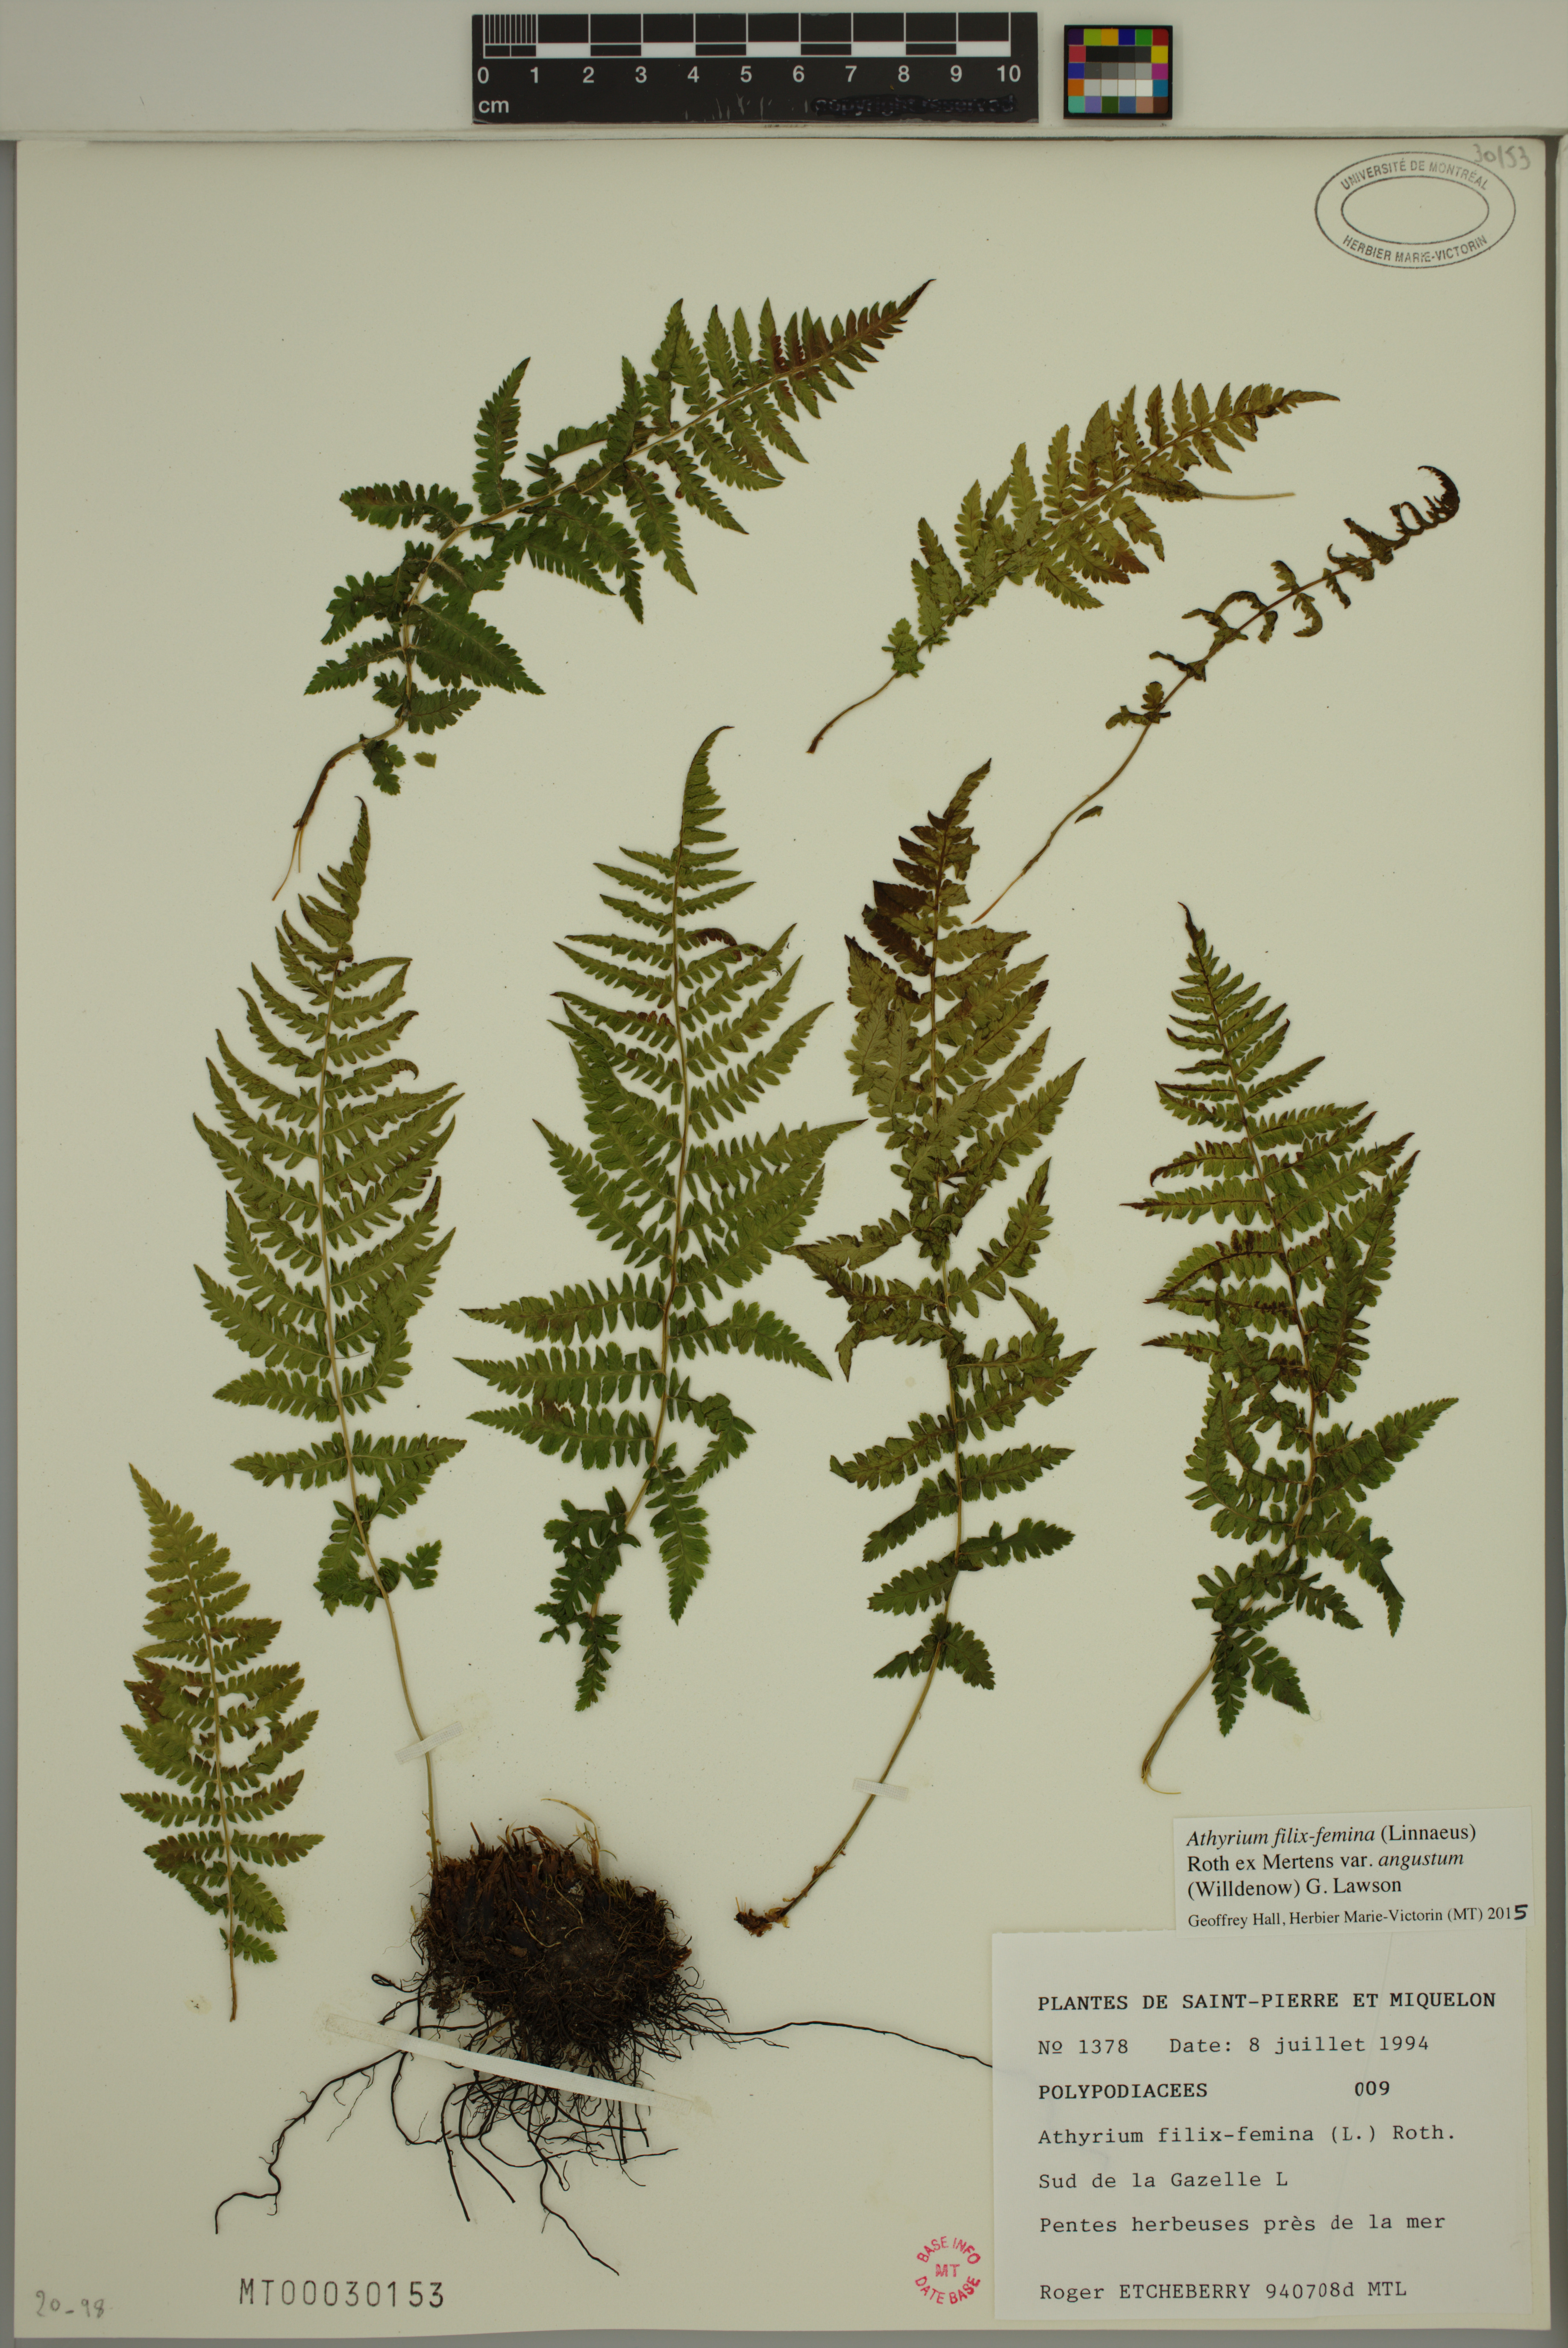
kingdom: Plantae
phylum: Tracheophyta
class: Polypodiopsida
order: Polypodiales
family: Athyriaceae
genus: Athyrium
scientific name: Athyrium angustum
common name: Northern lady fern
